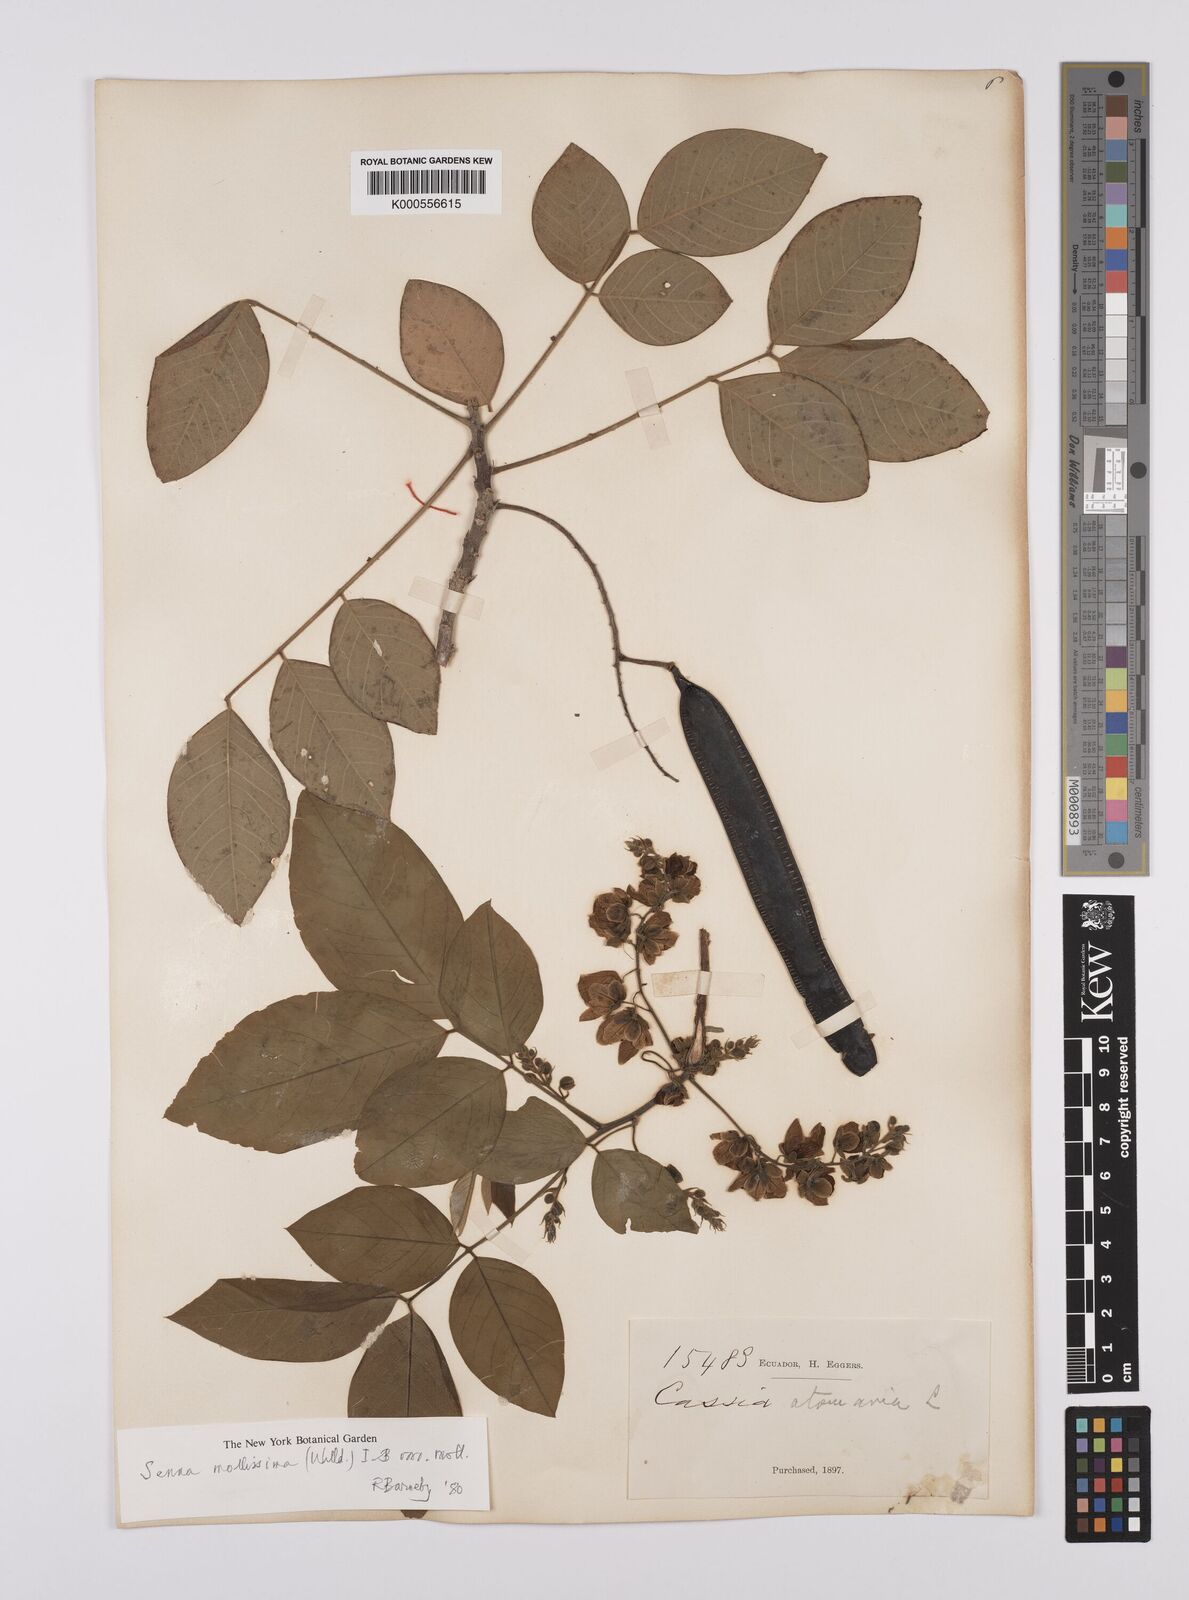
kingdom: Plantae
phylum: Tracheophyta
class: Magnoliopsida
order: Fabales
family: Fabaceae
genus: Senna
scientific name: Senna mollissima
